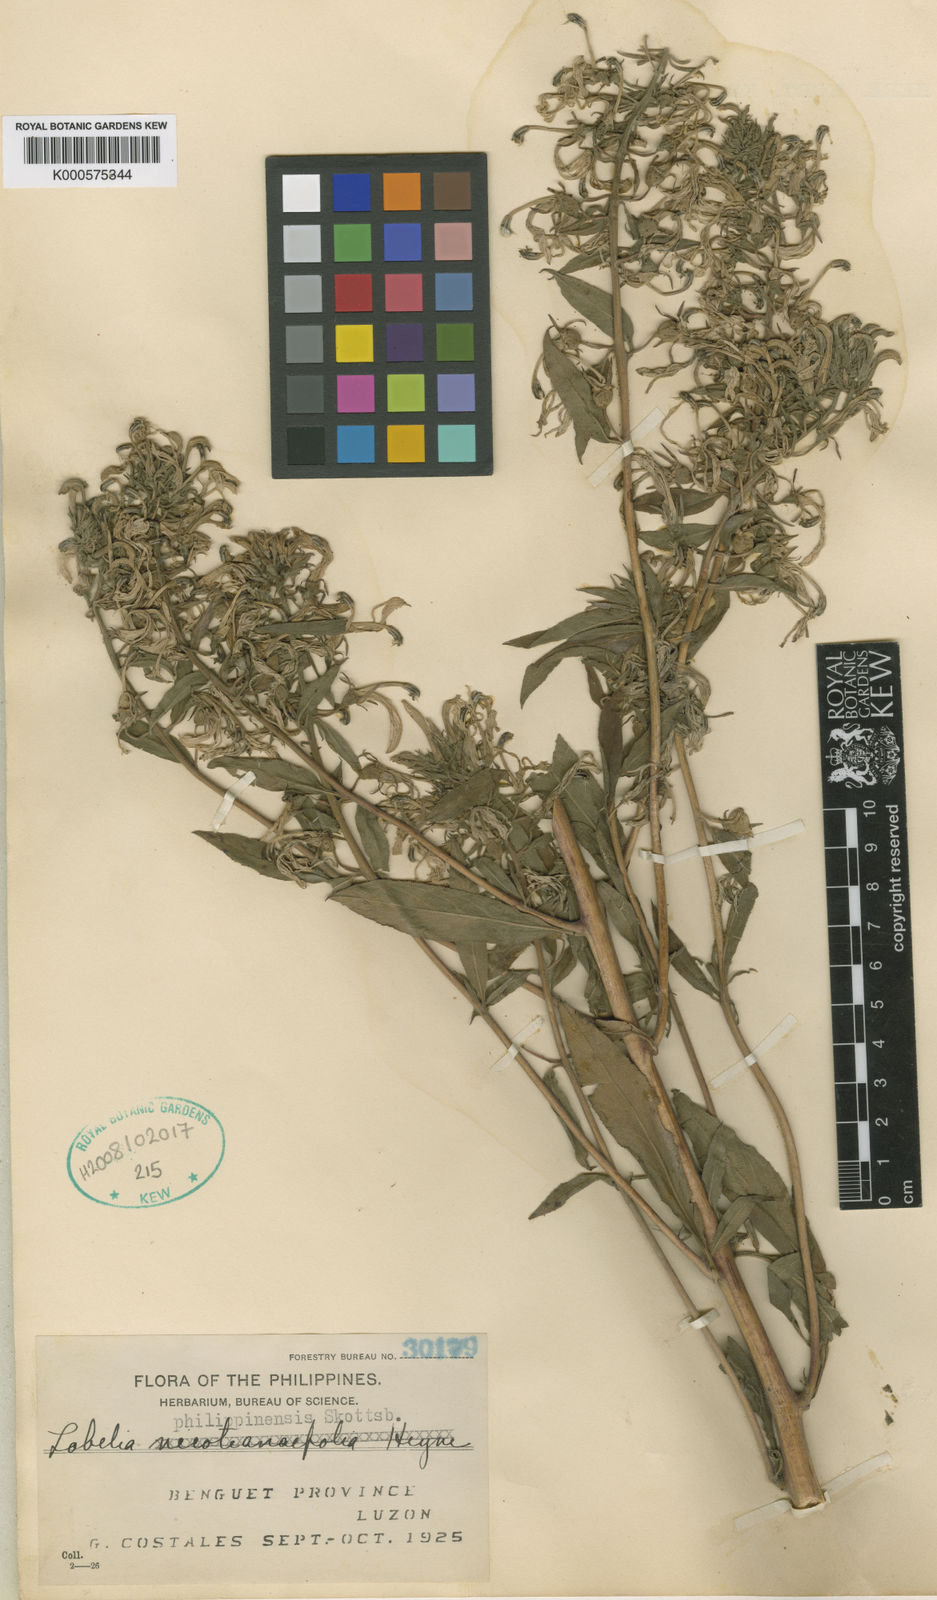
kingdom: Plantae
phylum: Tracheophyta
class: Magnoliopsida
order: Asterales
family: Campanulaceae
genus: Lobelia
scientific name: Lobelia
